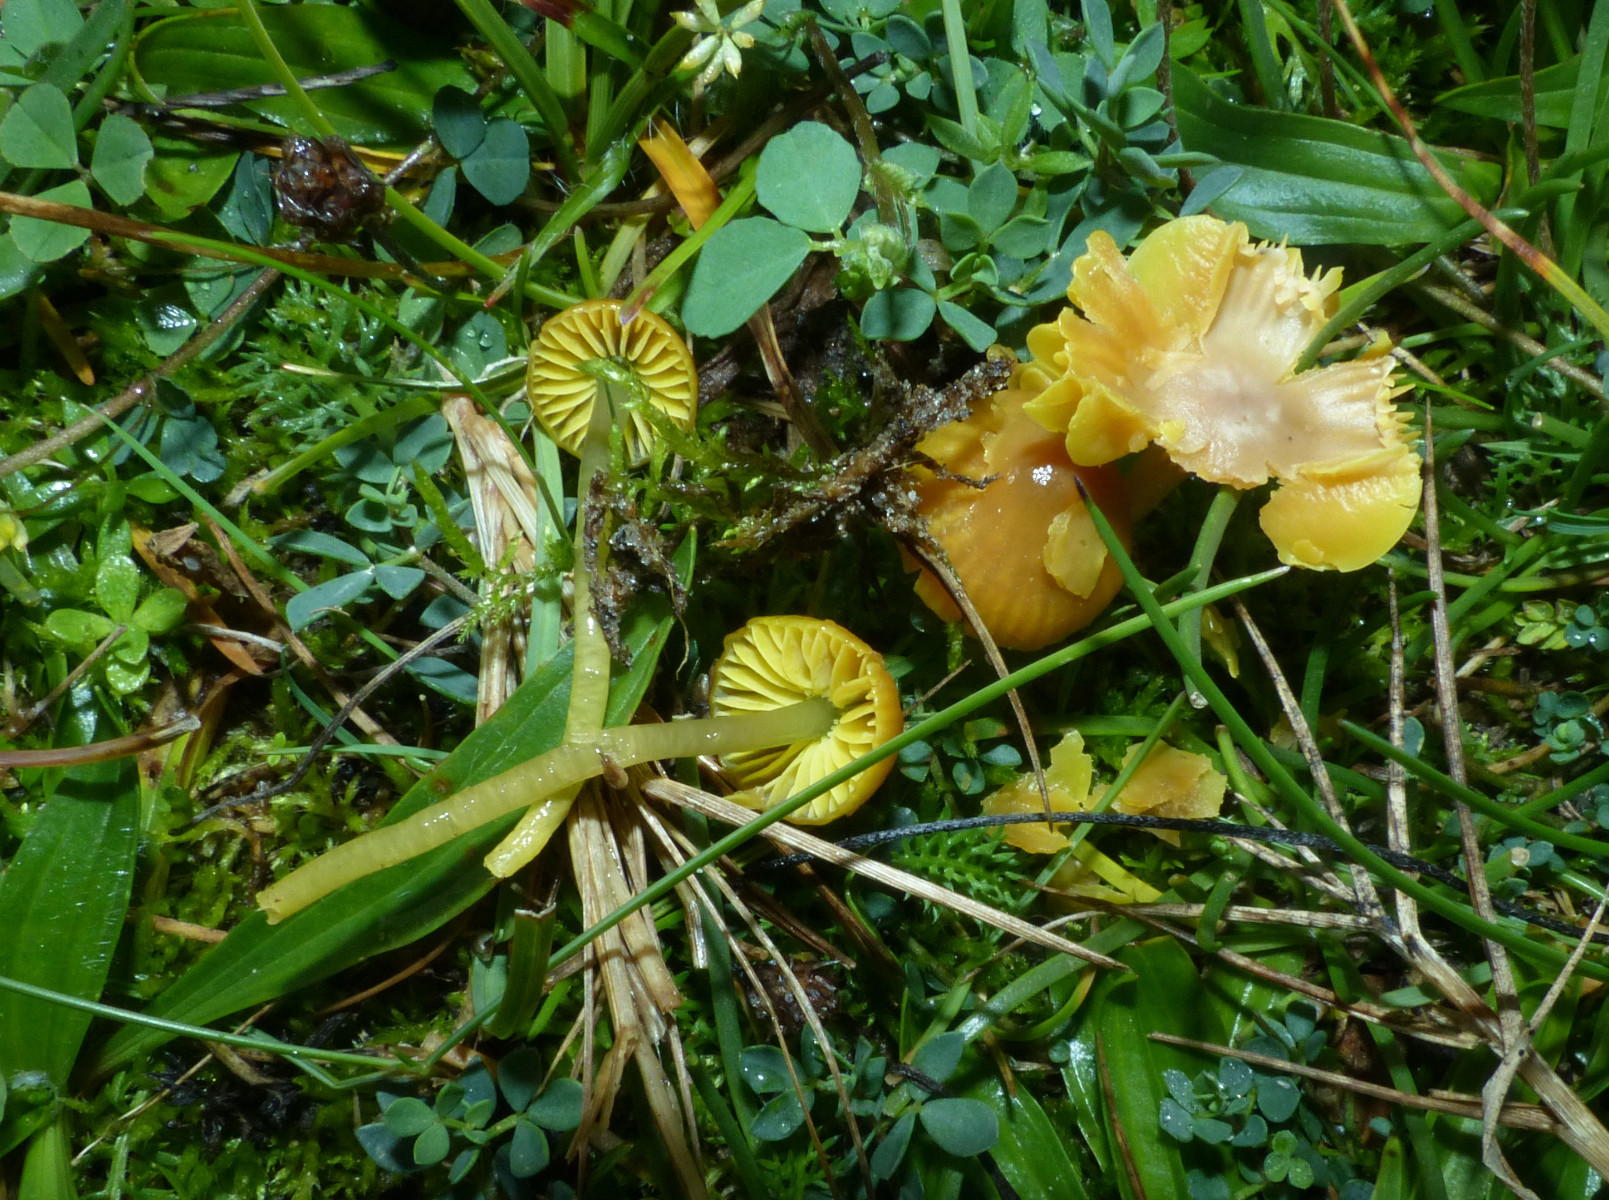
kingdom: Fungi
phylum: Basidiomycota
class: Agaricomycetes
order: Agaricales
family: Hygrophoraceae
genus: Gliophorus
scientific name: Gliophorus psittacinus
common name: papegøje-vokshat
